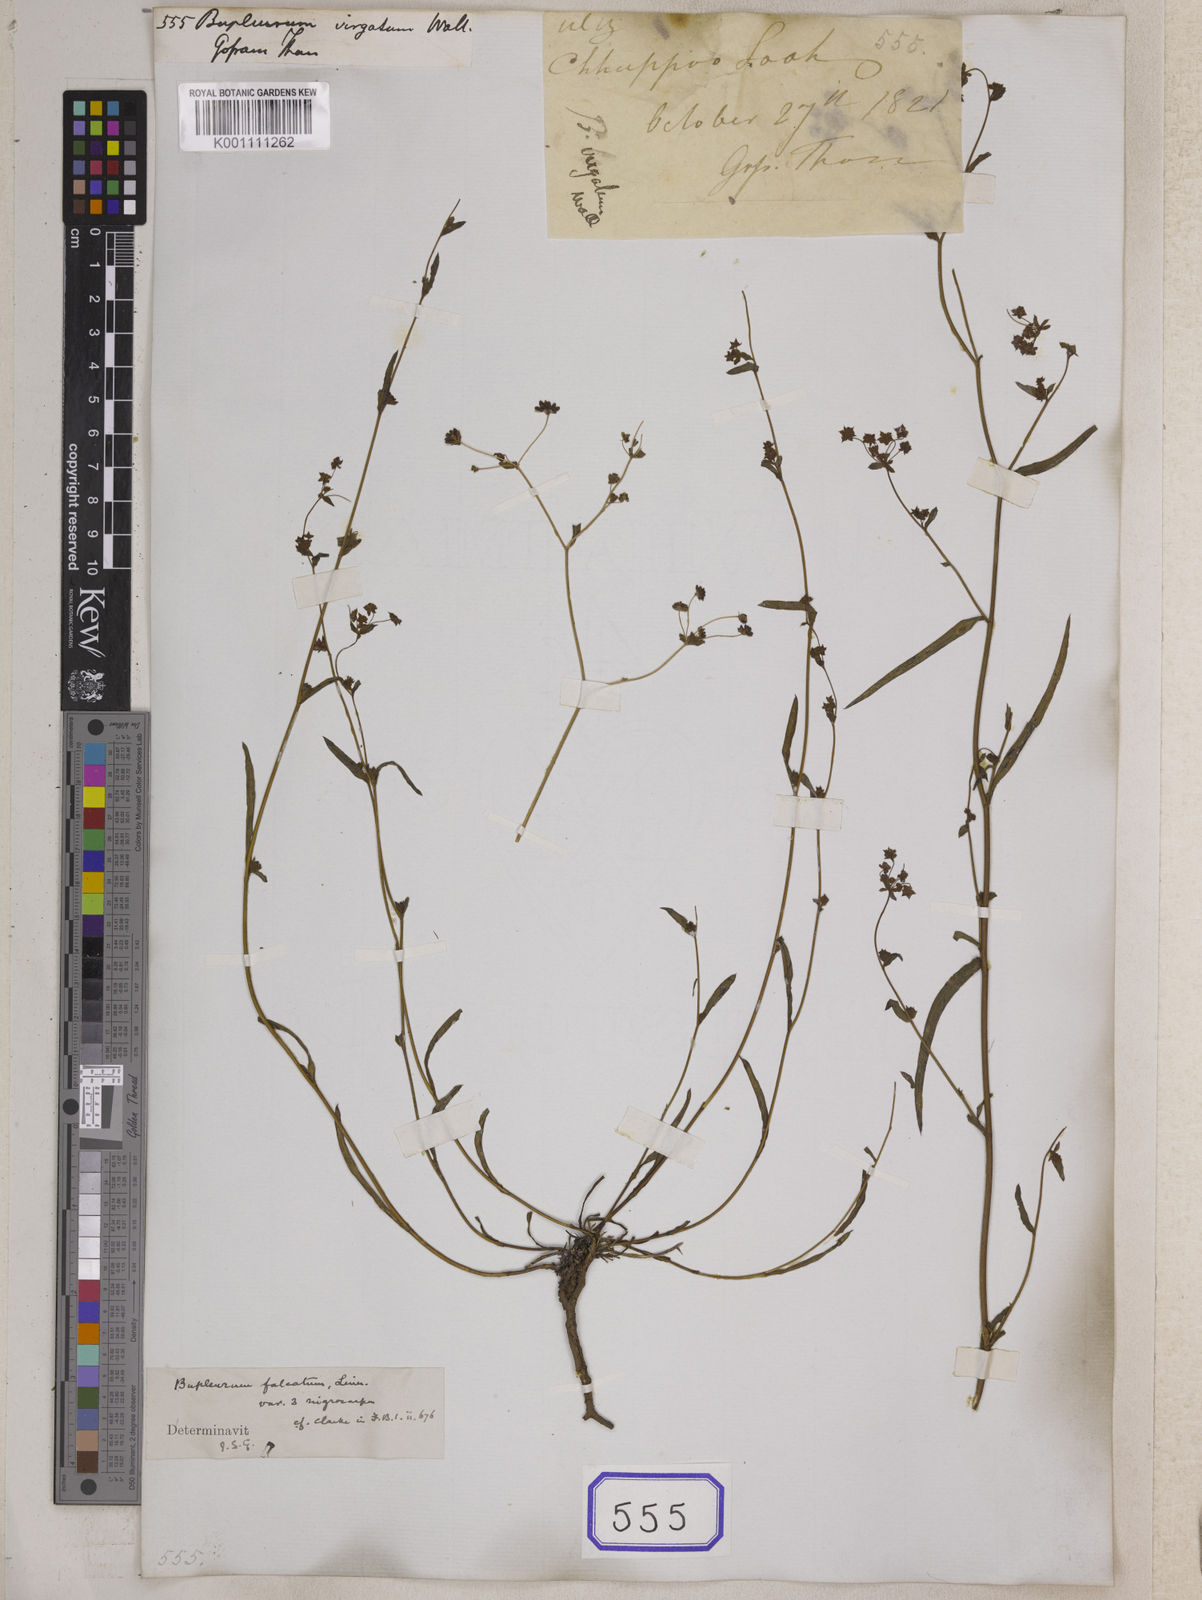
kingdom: Plantae
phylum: Tracheophyta
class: Magnoliopsida
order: Apiales
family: Apiaceae
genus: Bupleurum
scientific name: Bupleurum
